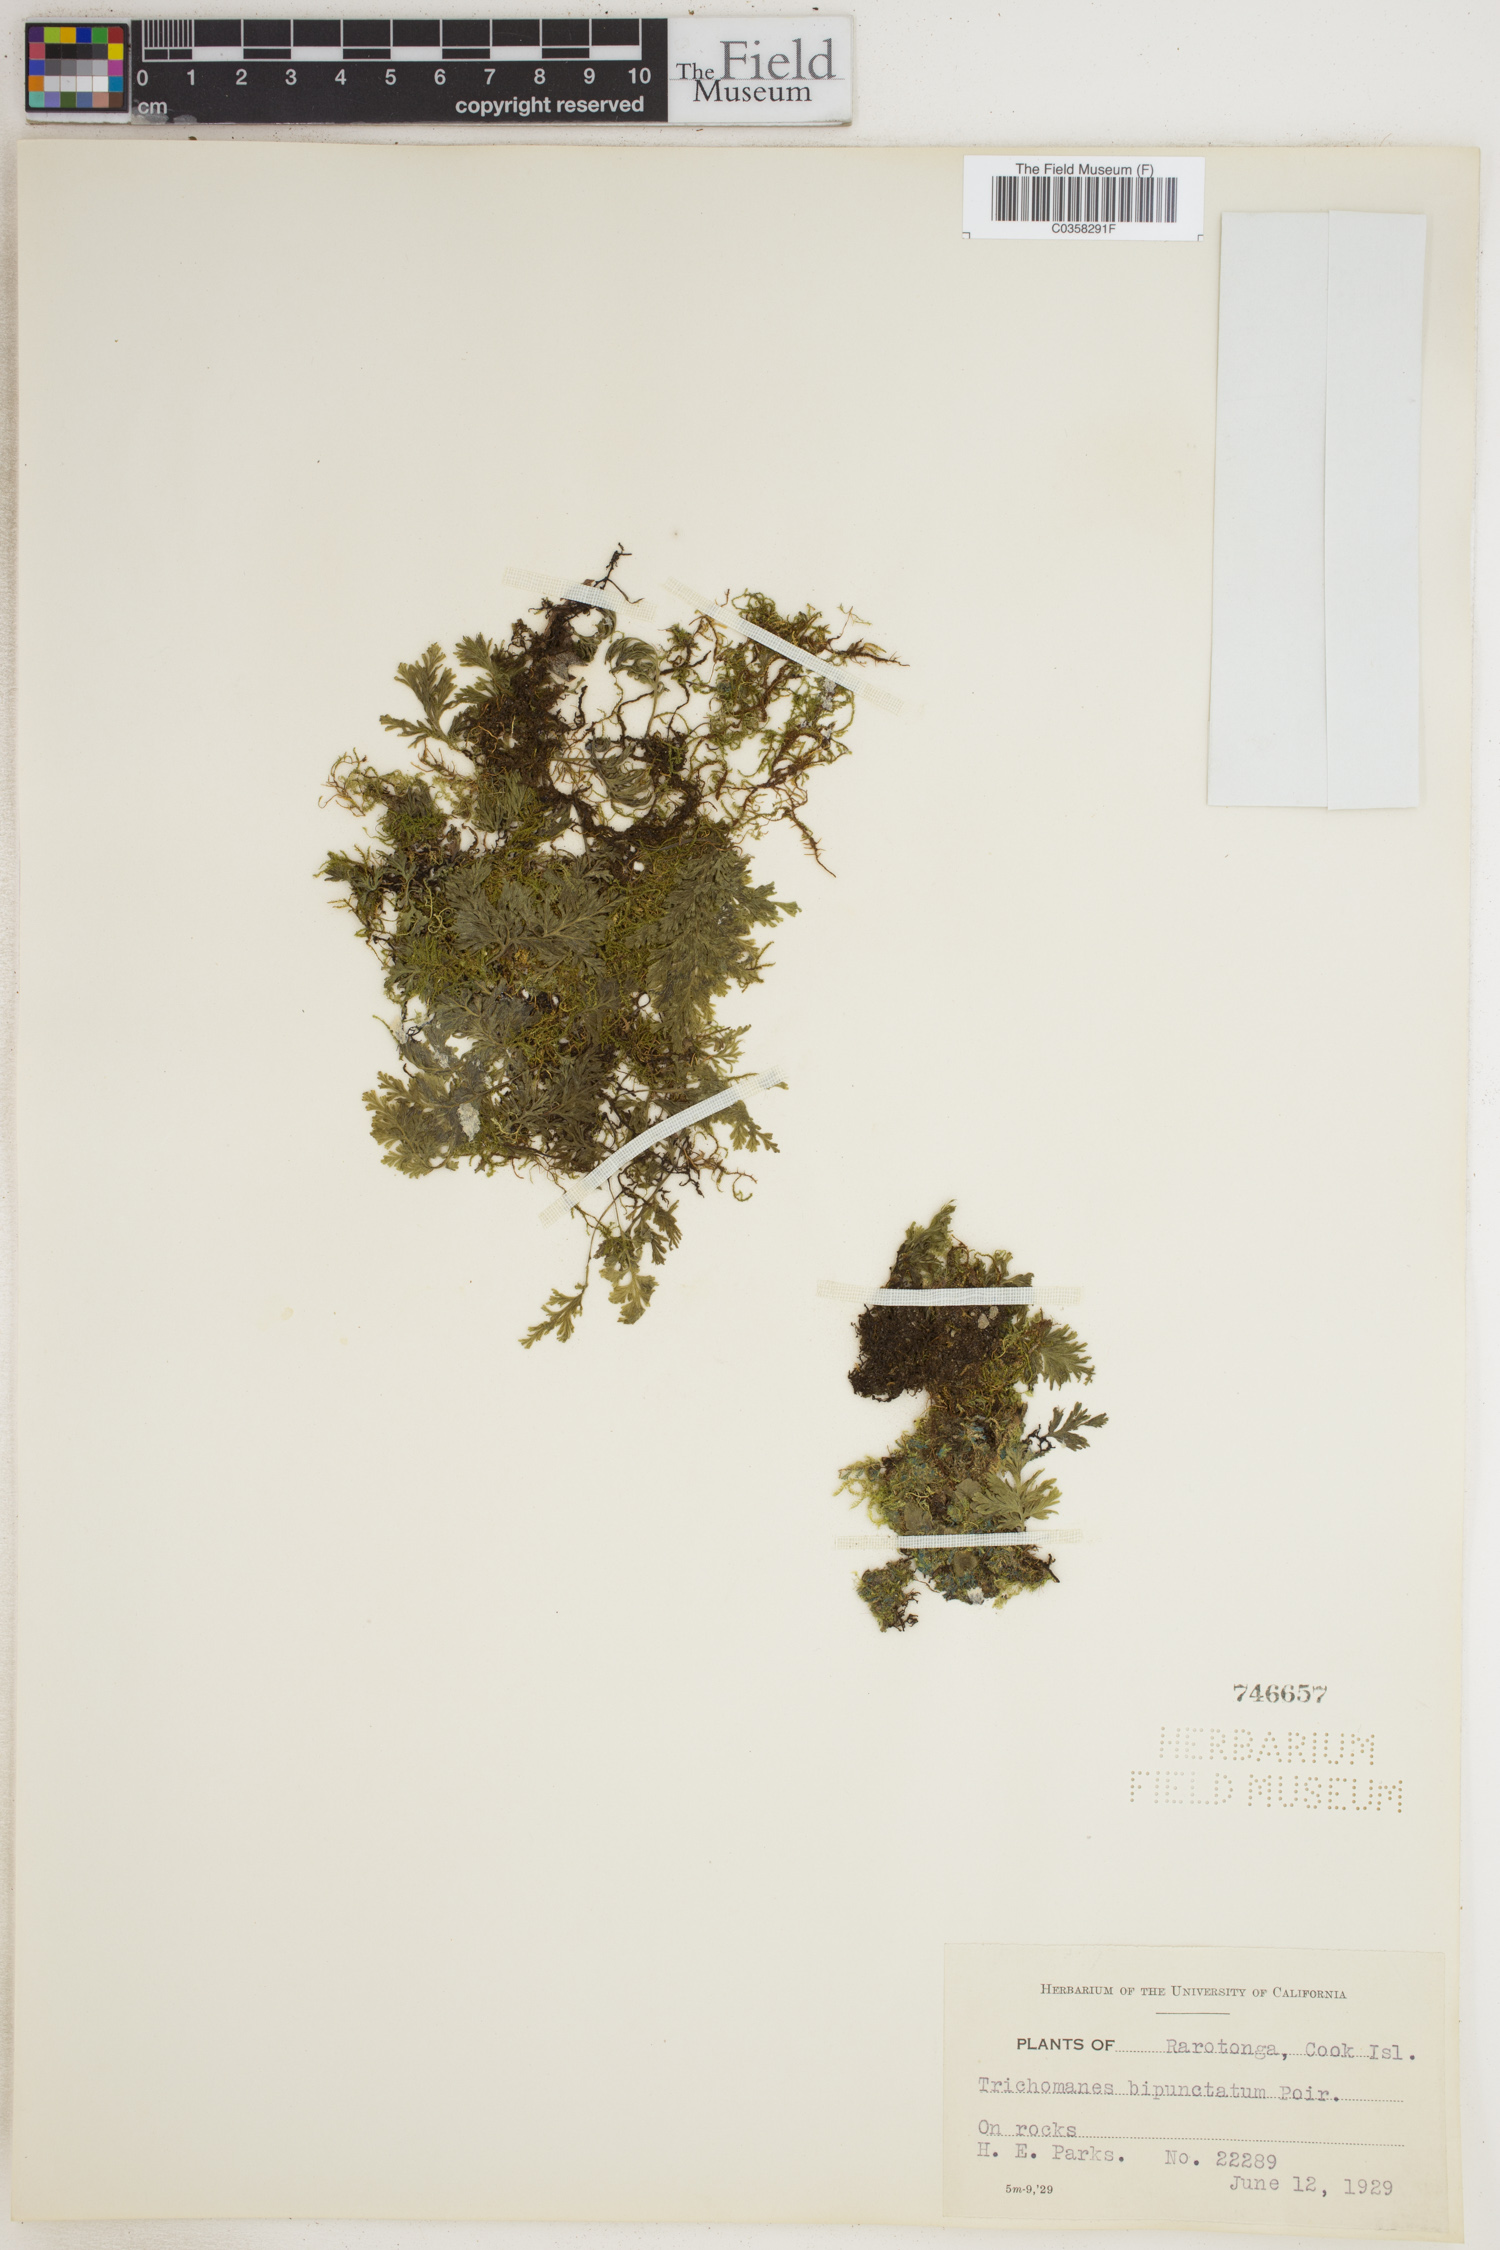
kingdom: Plantae
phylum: Tracheophyta
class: Polypodiopsida
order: Hymenophyllales
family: Hymenophyllaceae
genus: Crepidomanes
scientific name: Crepidomanes bipunctatum
